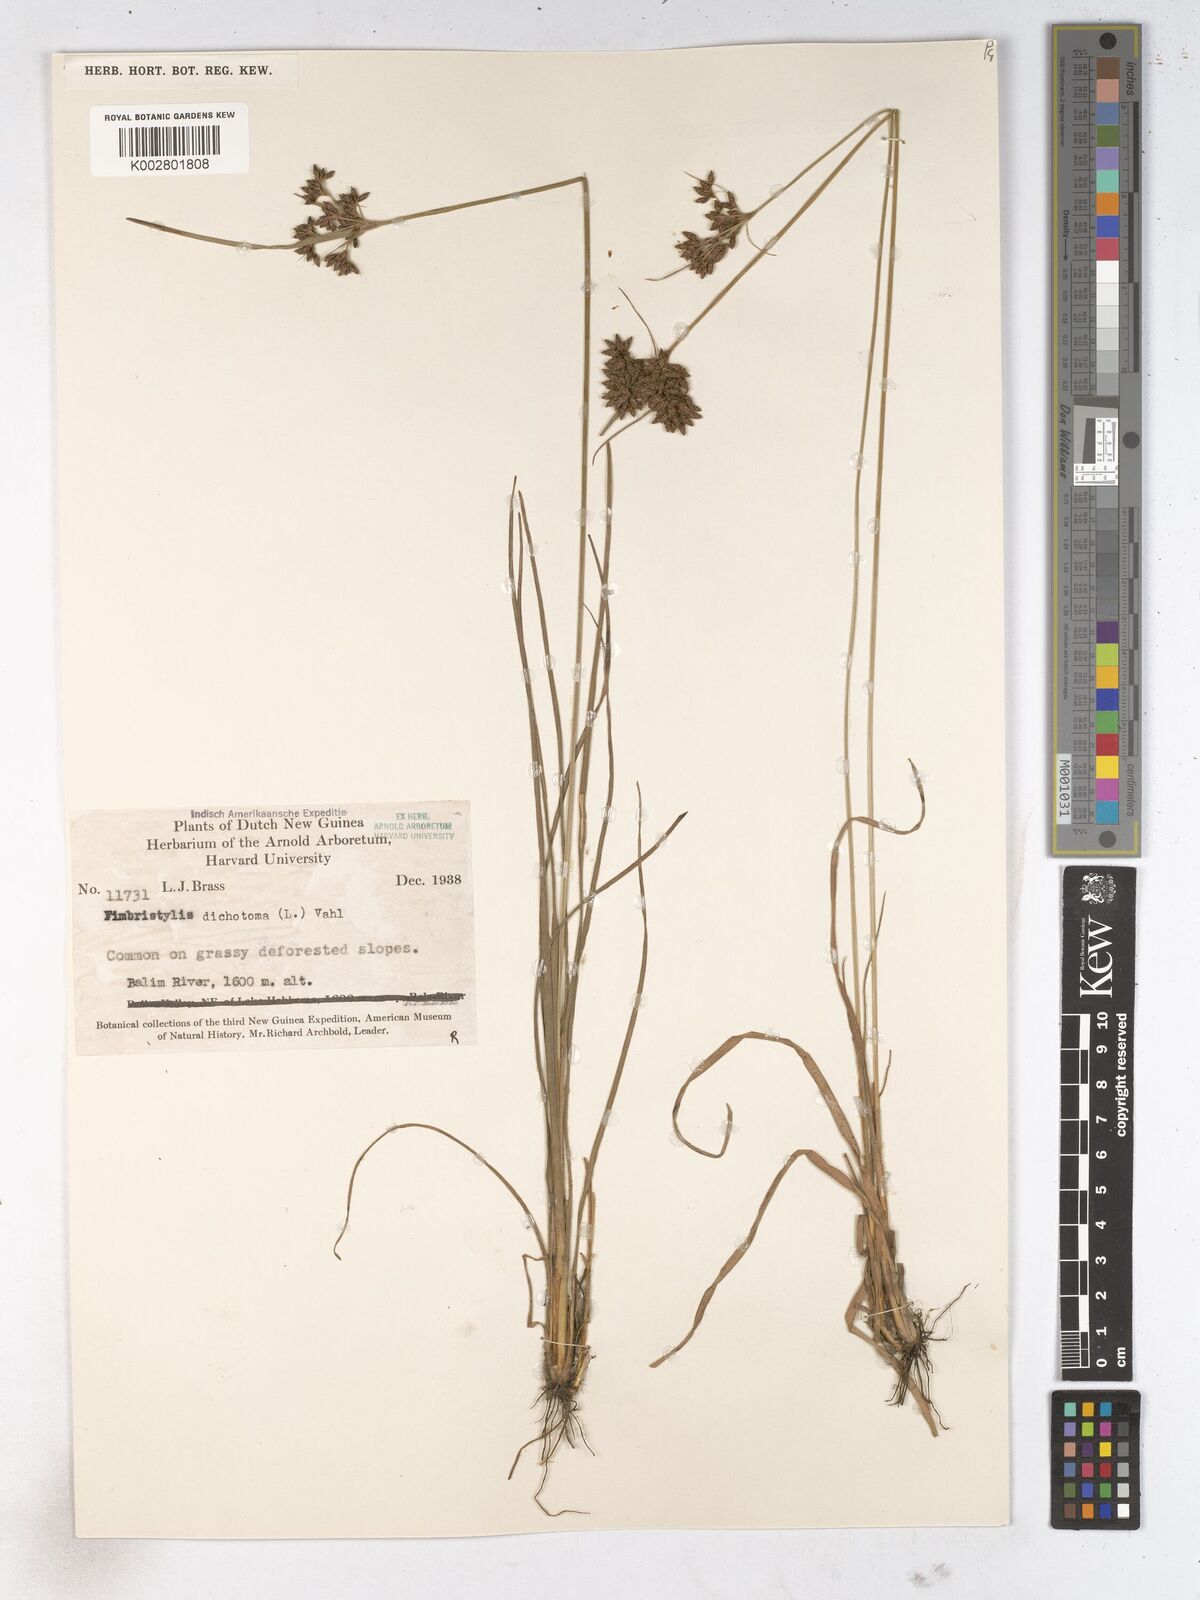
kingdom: Plantae
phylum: Tracheophyta
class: Liliopsida
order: Poales
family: Cyperaceae
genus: Fimbristylis
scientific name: Fimbristylis dichotoma
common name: Forked fimbry
